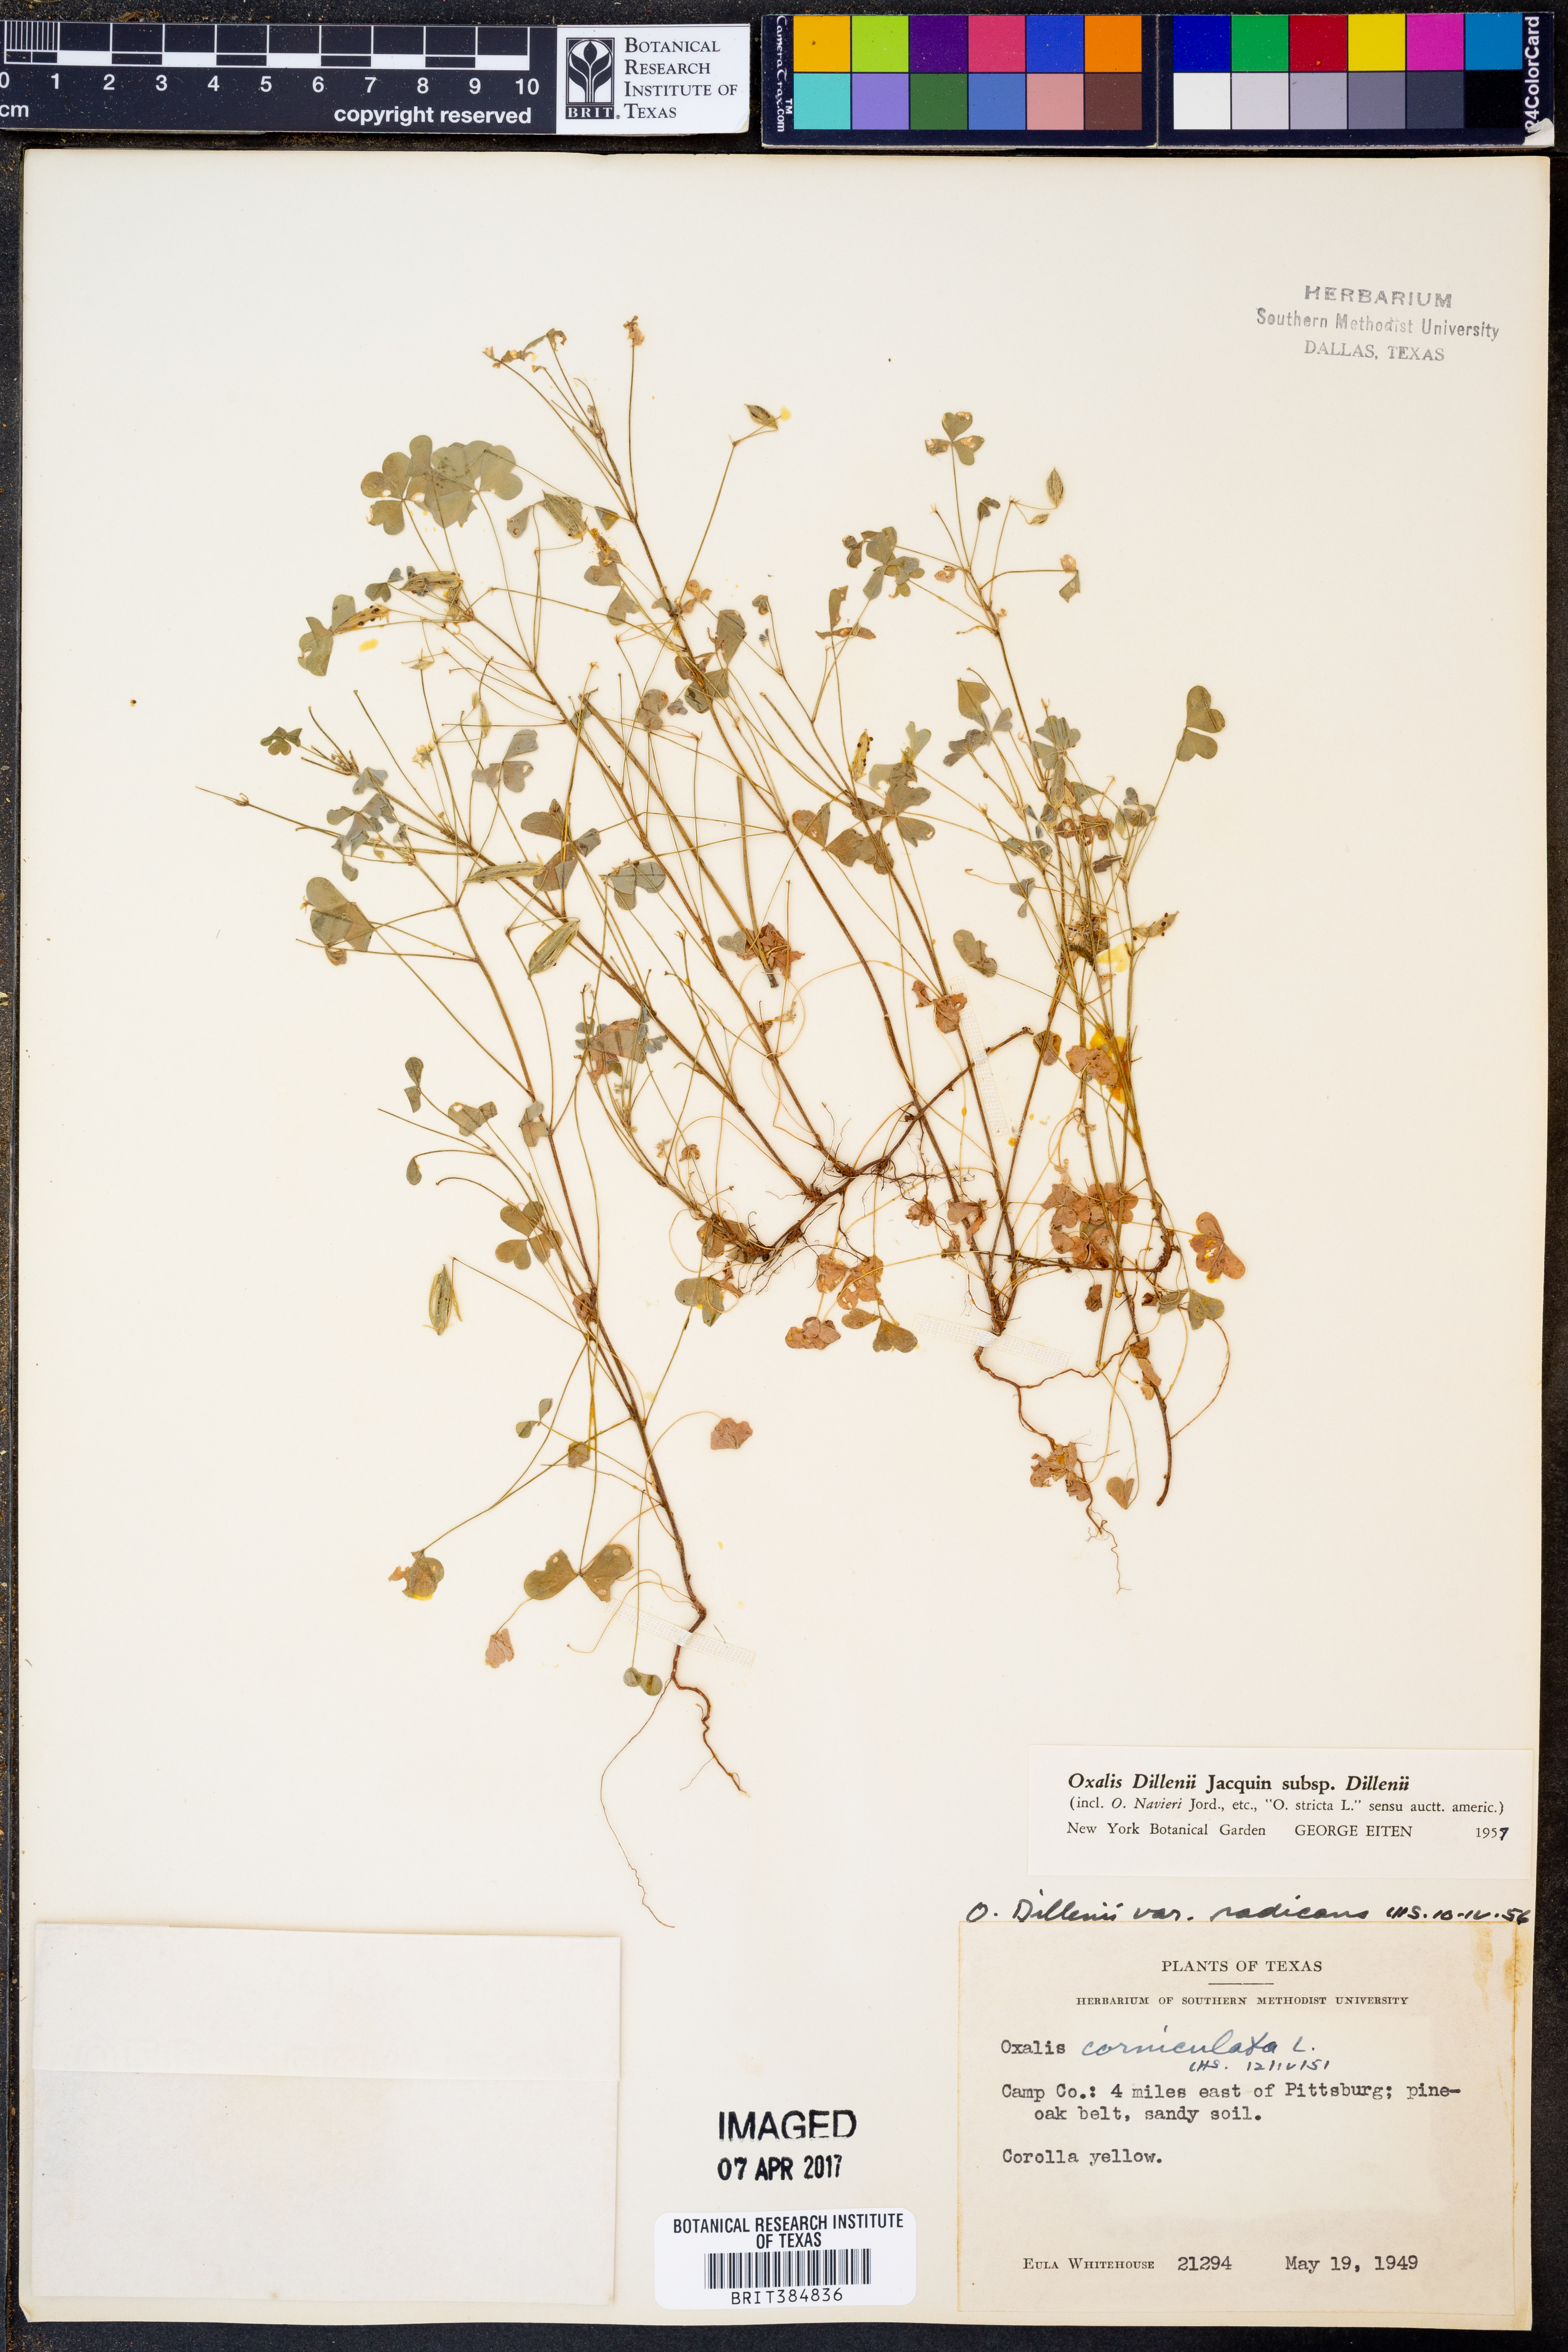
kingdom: Plantae
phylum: Tracheophyta
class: Magnoliopsida
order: Oxalidales
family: Oxalidaceae
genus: Oxalis
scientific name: Oxalis dillenii
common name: Sussex yellow-sorrel
